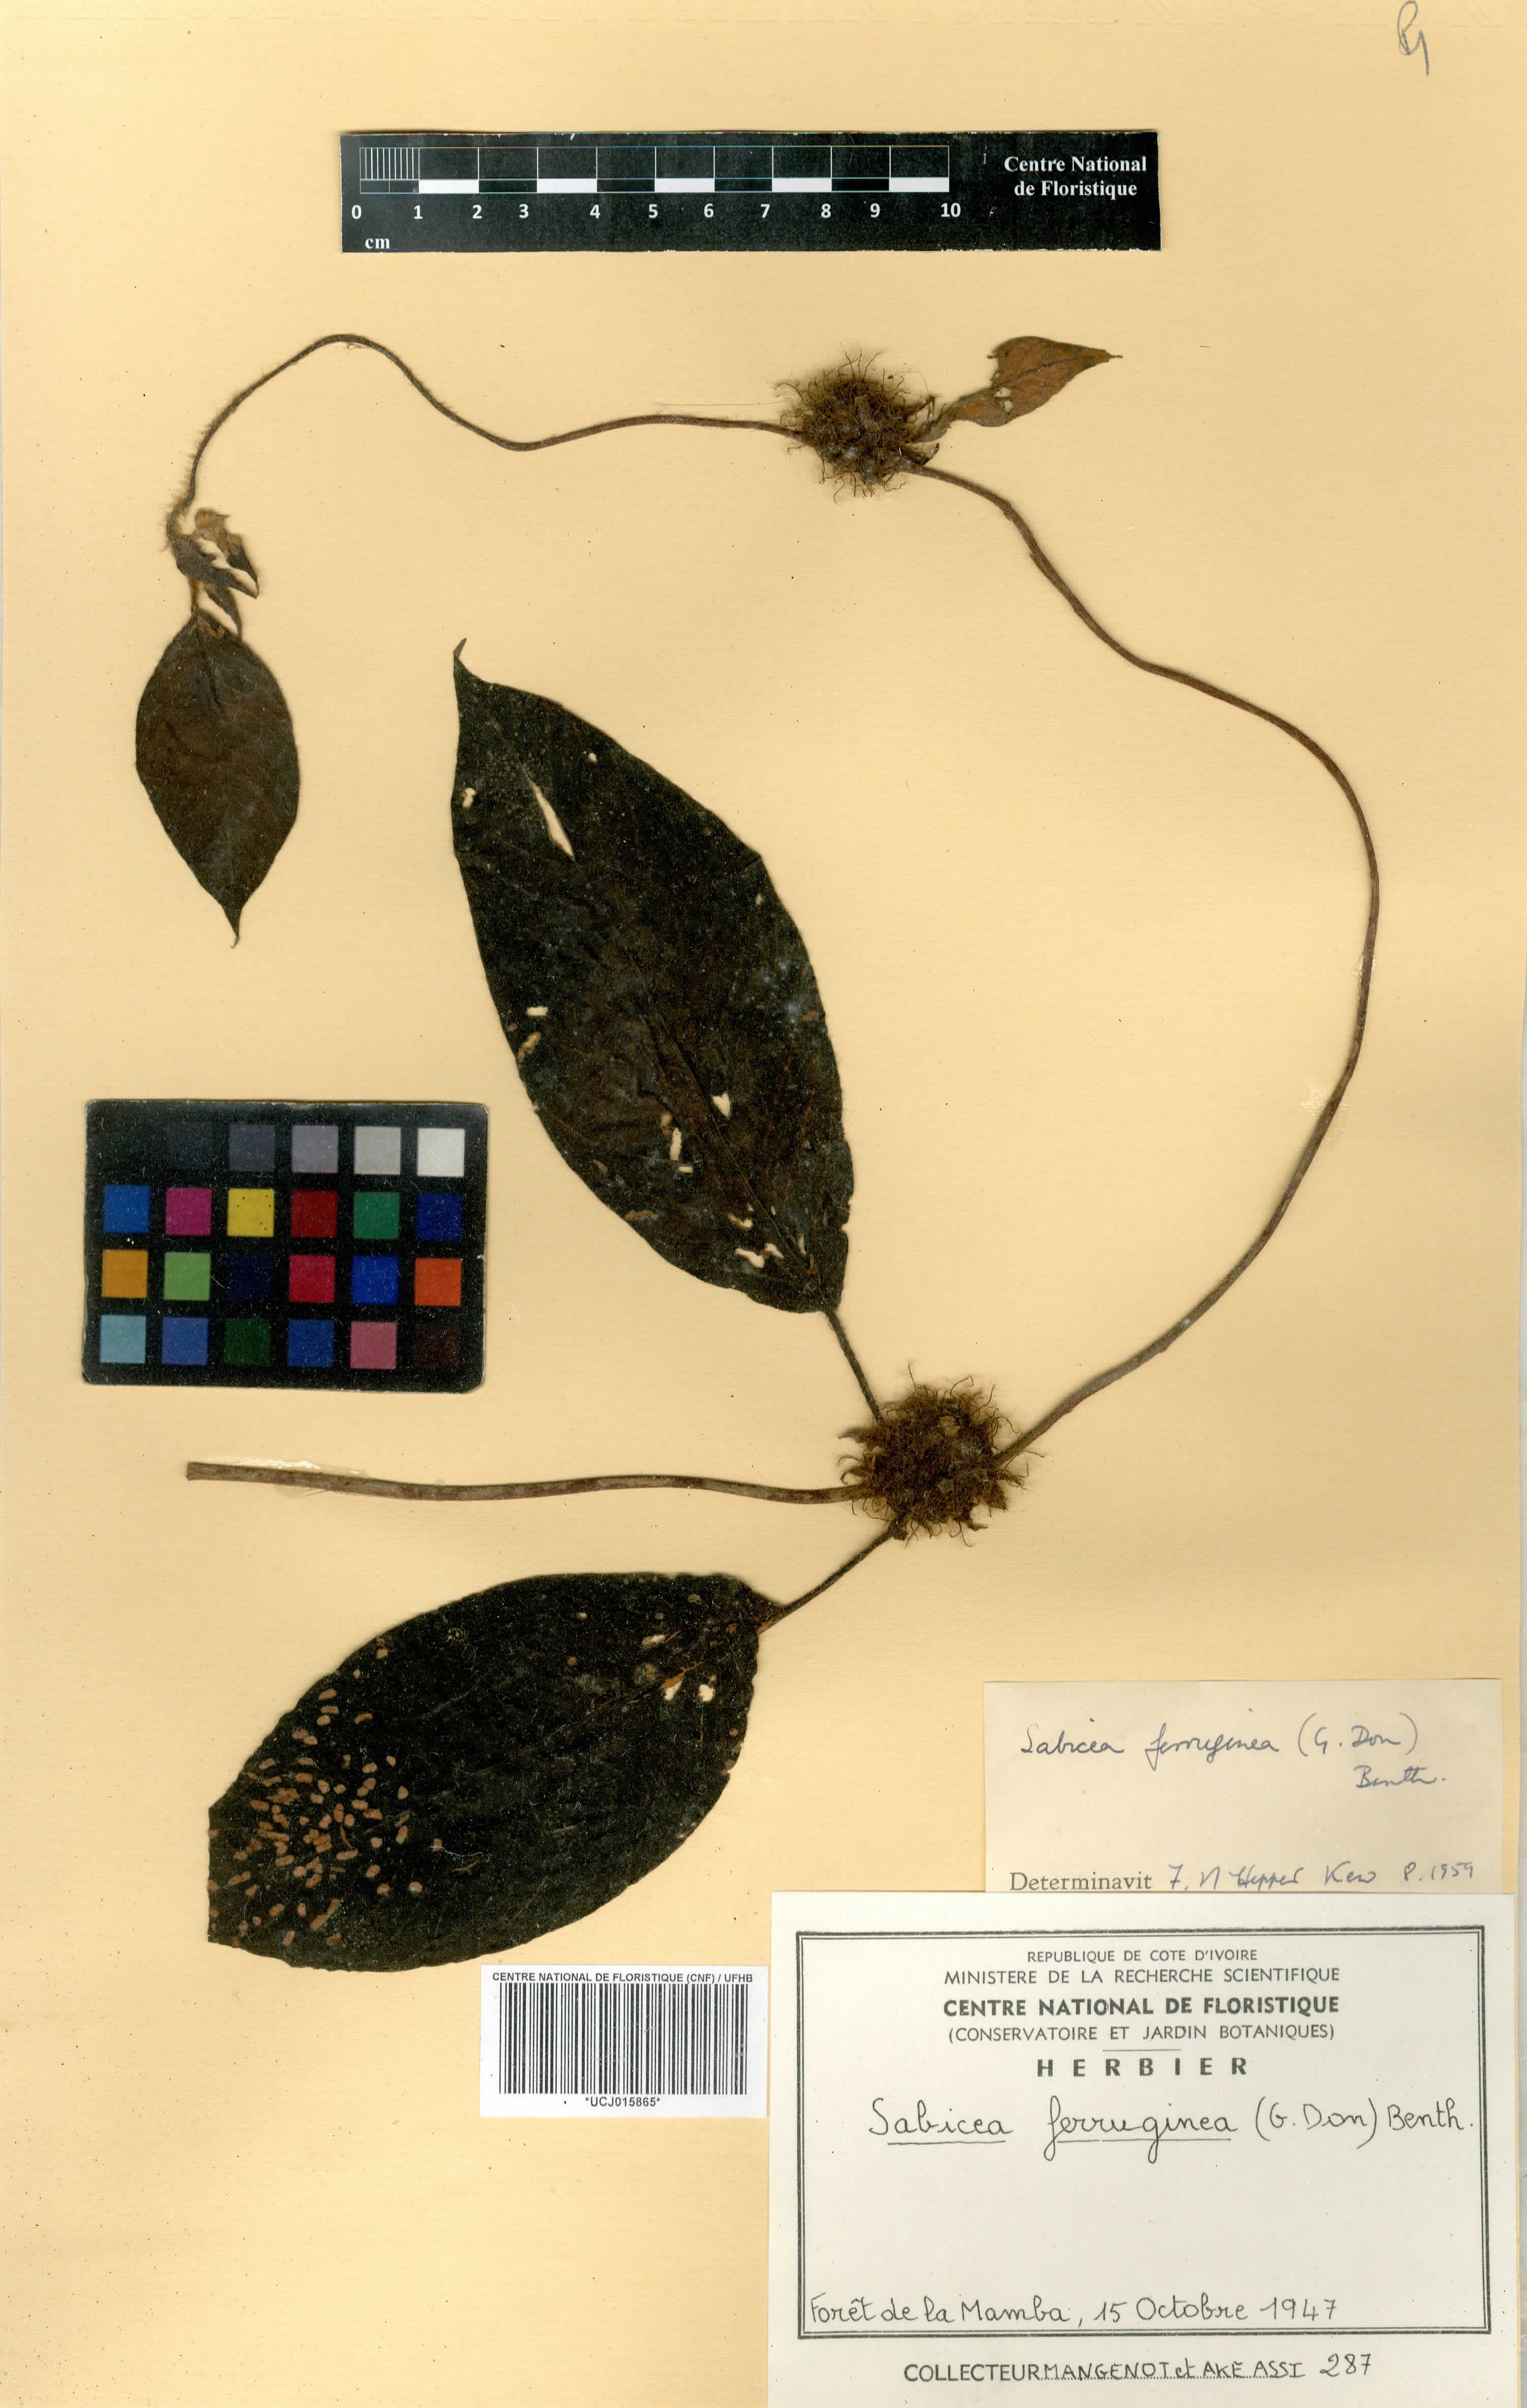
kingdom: Plantae
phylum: Tracheophyta
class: Magnoliopsida
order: Gentianales
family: Rubiaceae
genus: Sabicea
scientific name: Sabicea ferruginea
